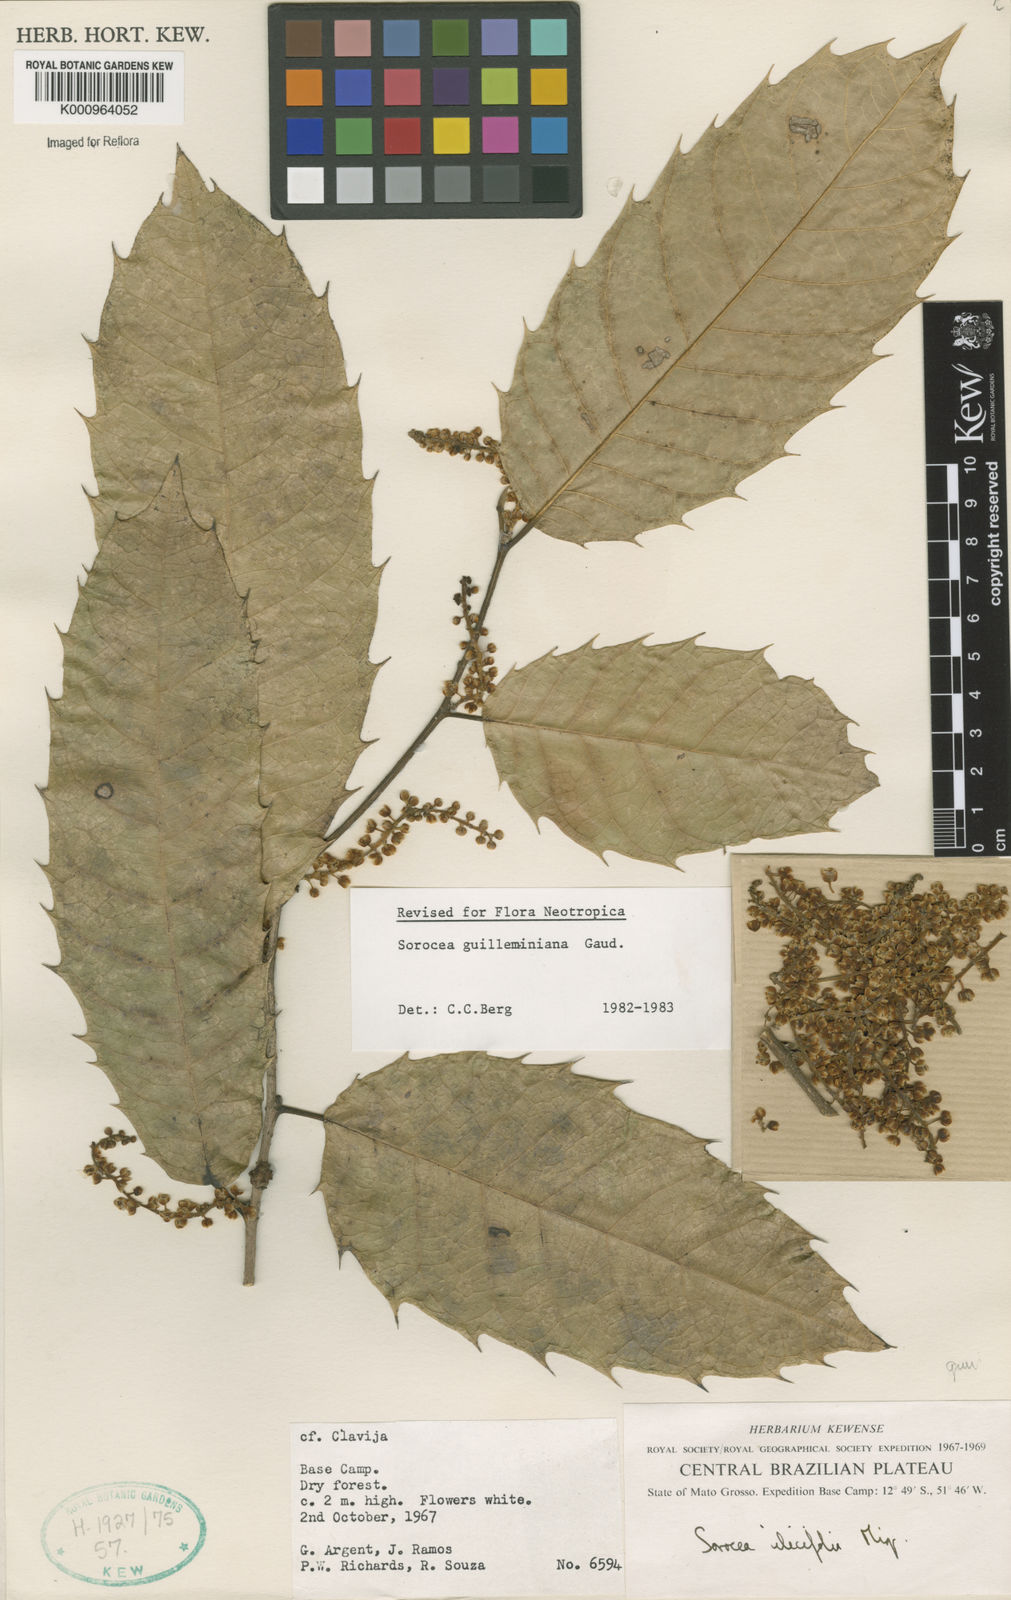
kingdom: Plantae
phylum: Tracheophyta
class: Magnoliopsida
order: Rosales
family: Moraceae
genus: Sorocea
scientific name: Sorocea guilleminiana
